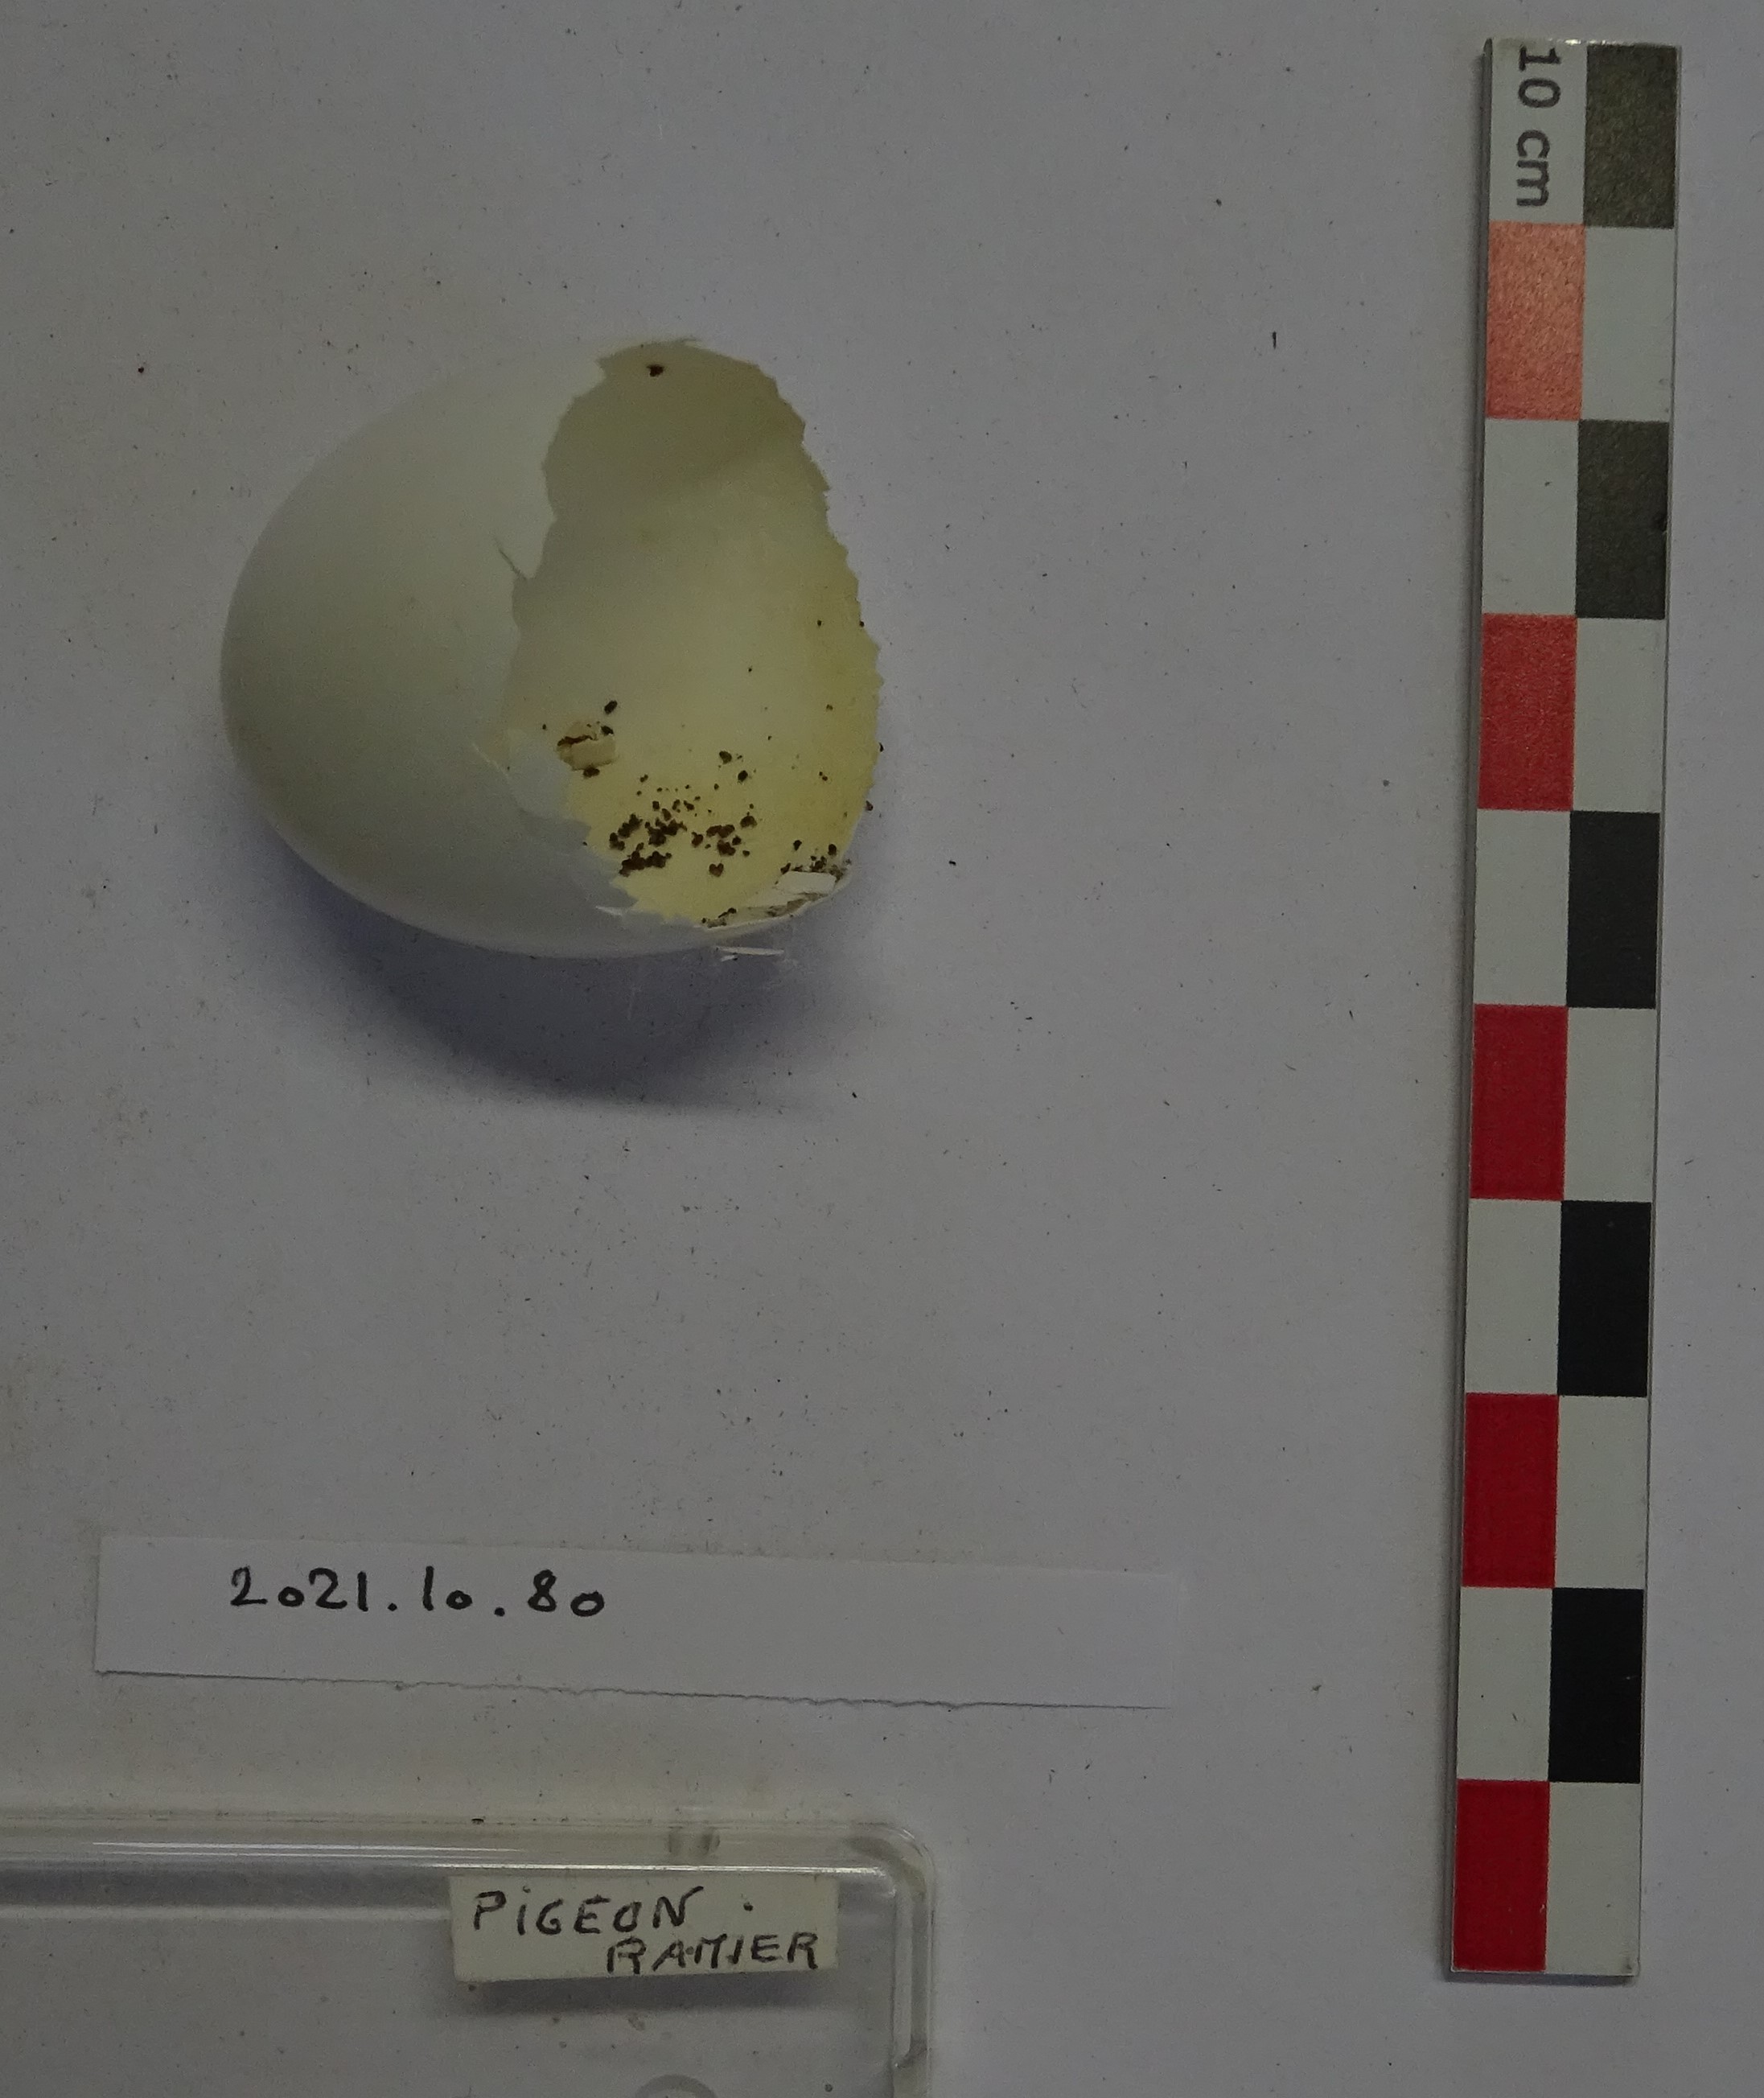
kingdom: Animalia
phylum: Chordata
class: Aves
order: Columbiformes
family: Columbidae
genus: Columba
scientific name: Columba palumbus
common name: Common wood pigeon
